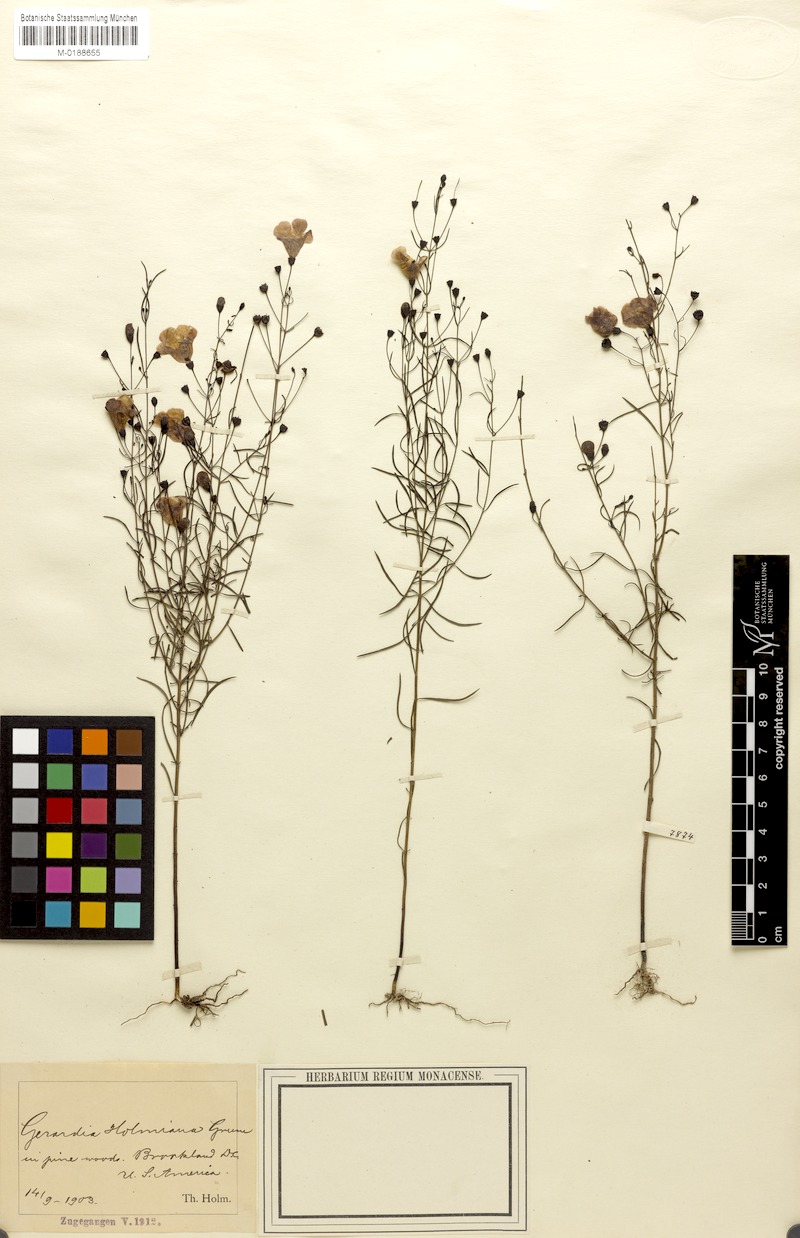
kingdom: Plantae
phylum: Tracheophyta
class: Magnoliopsida
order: Lamiales
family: Orobanchaceae
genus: Agalinis
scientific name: Agalinis setacea
